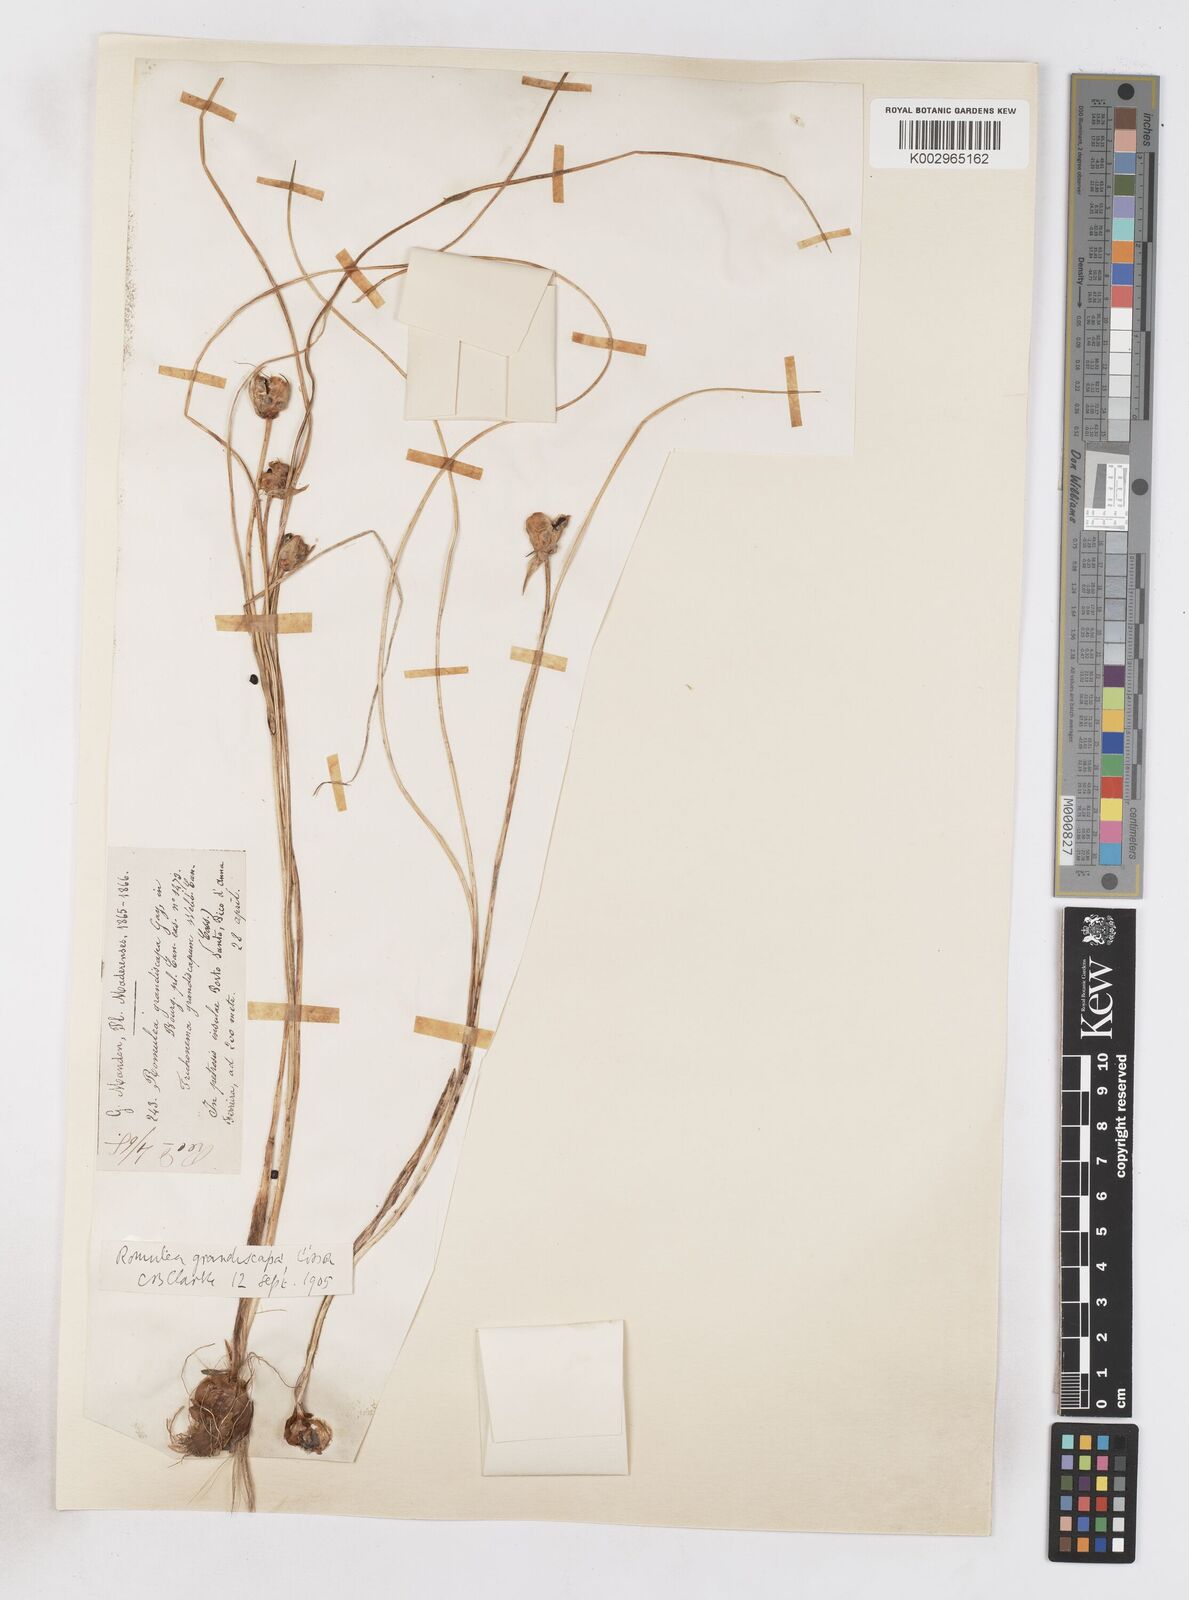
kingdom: Plantae
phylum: Tracheophyta
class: Liliopsida
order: Asparagales
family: Iridaceae
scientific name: Iridaceae
